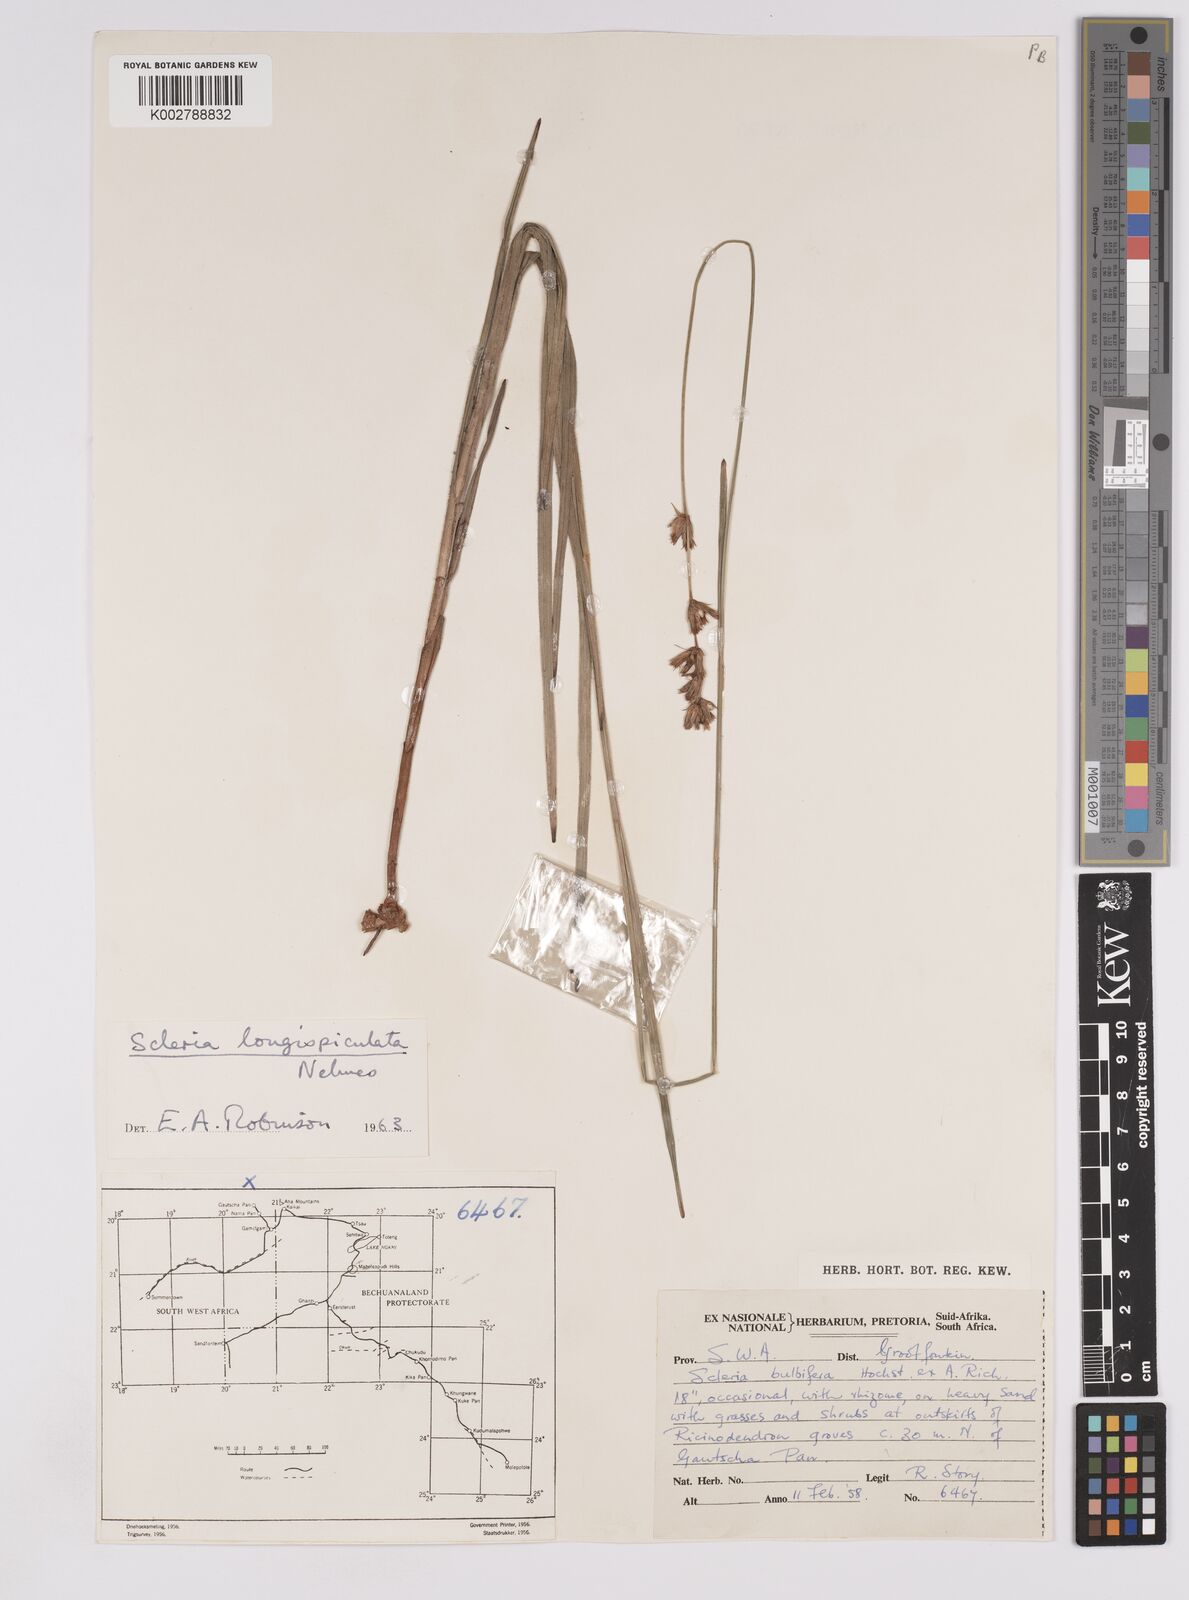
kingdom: Plantae
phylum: Tracheophyta
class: Liliopsida
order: Poales
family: Cyperaceae
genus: Scleria
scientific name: Scleria longispiculata
